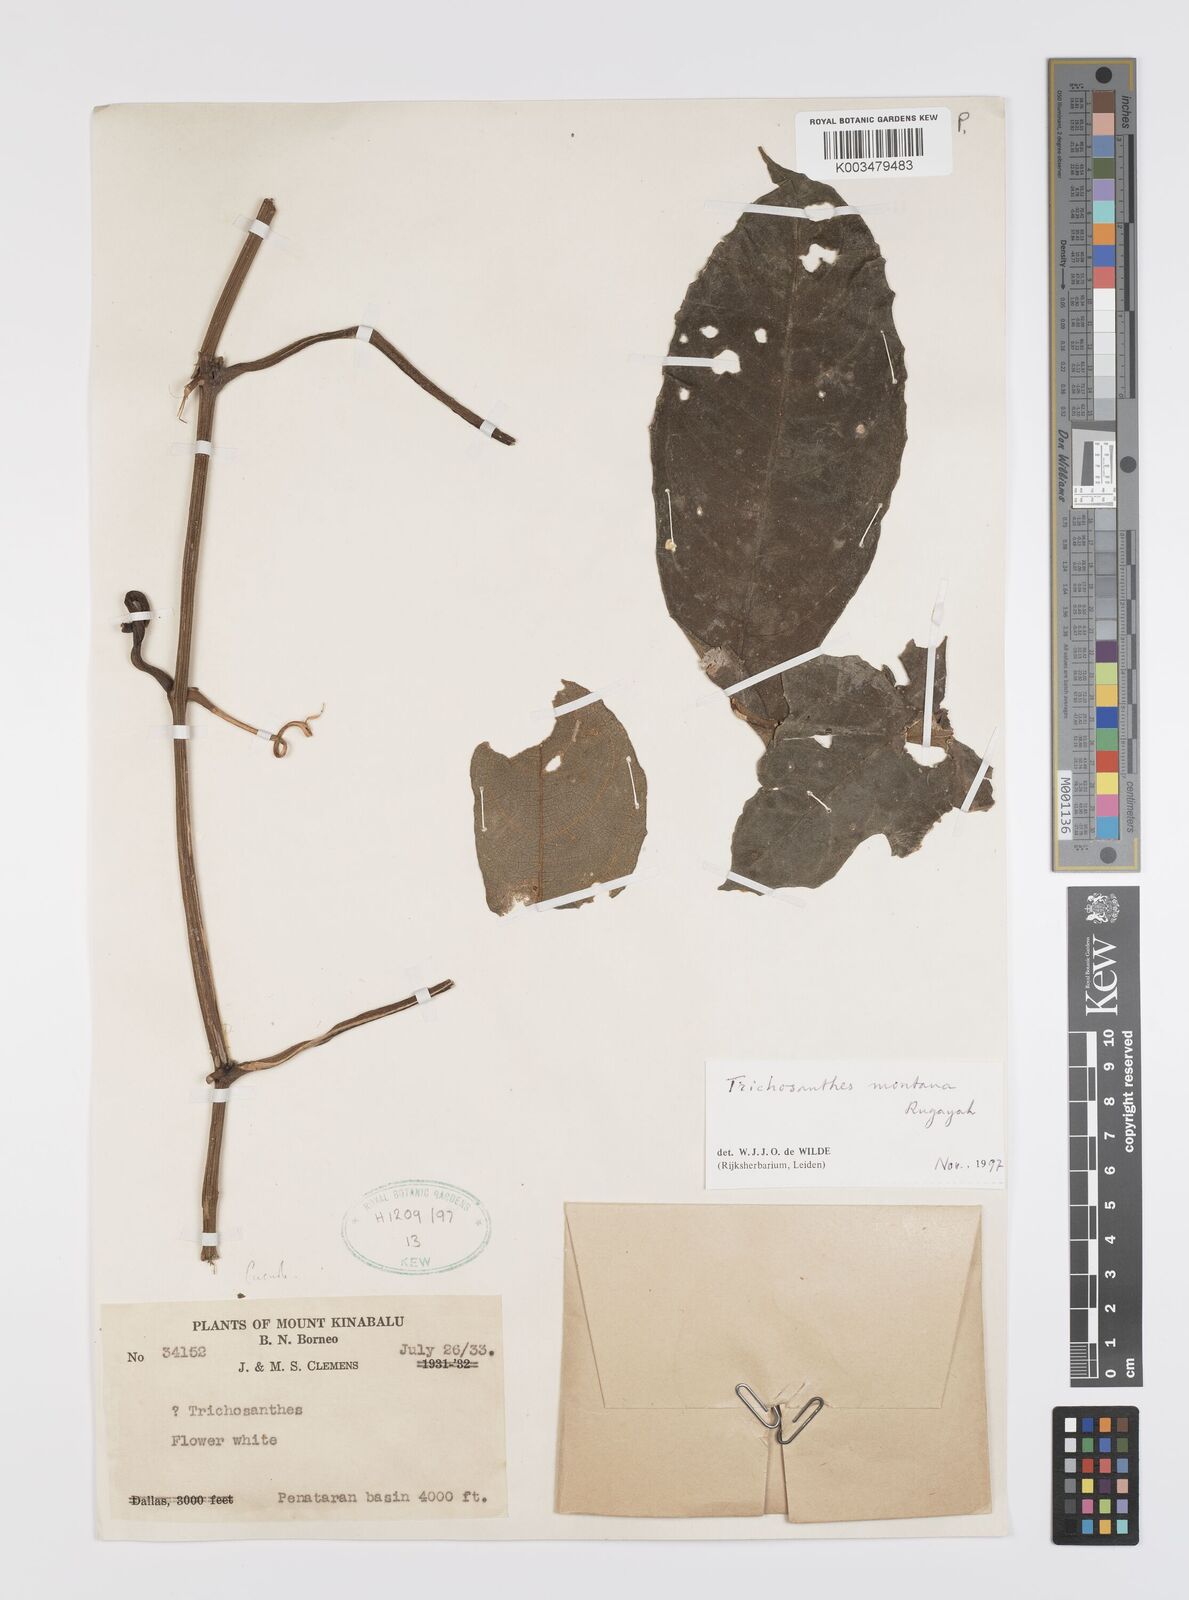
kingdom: Plantae
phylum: Tracheophyta
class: Magnoliopsida
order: Cucurbitales
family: Cucurbitaceae
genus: Trichosanthes
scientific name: Trichosanthes montana
